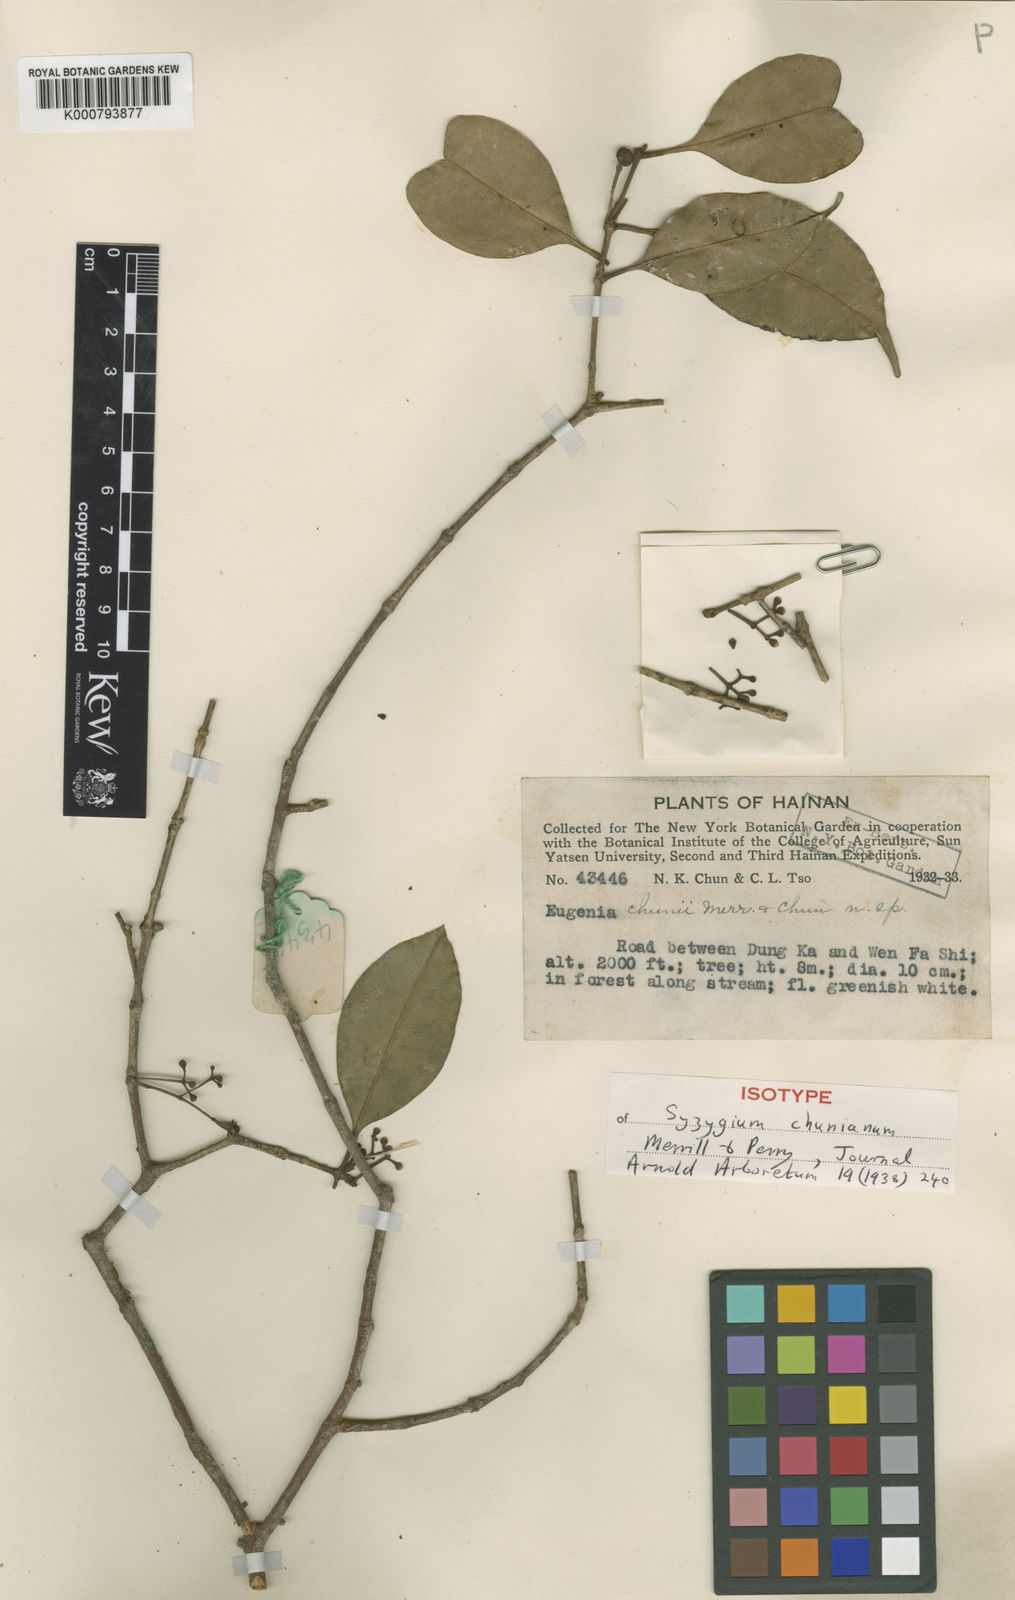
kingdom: Plantae
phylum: Tracheophyta
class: Magnoliopsida
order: Myrtales
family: Myrtaceae
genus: Syzygium
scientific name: Syzygium chunianum
